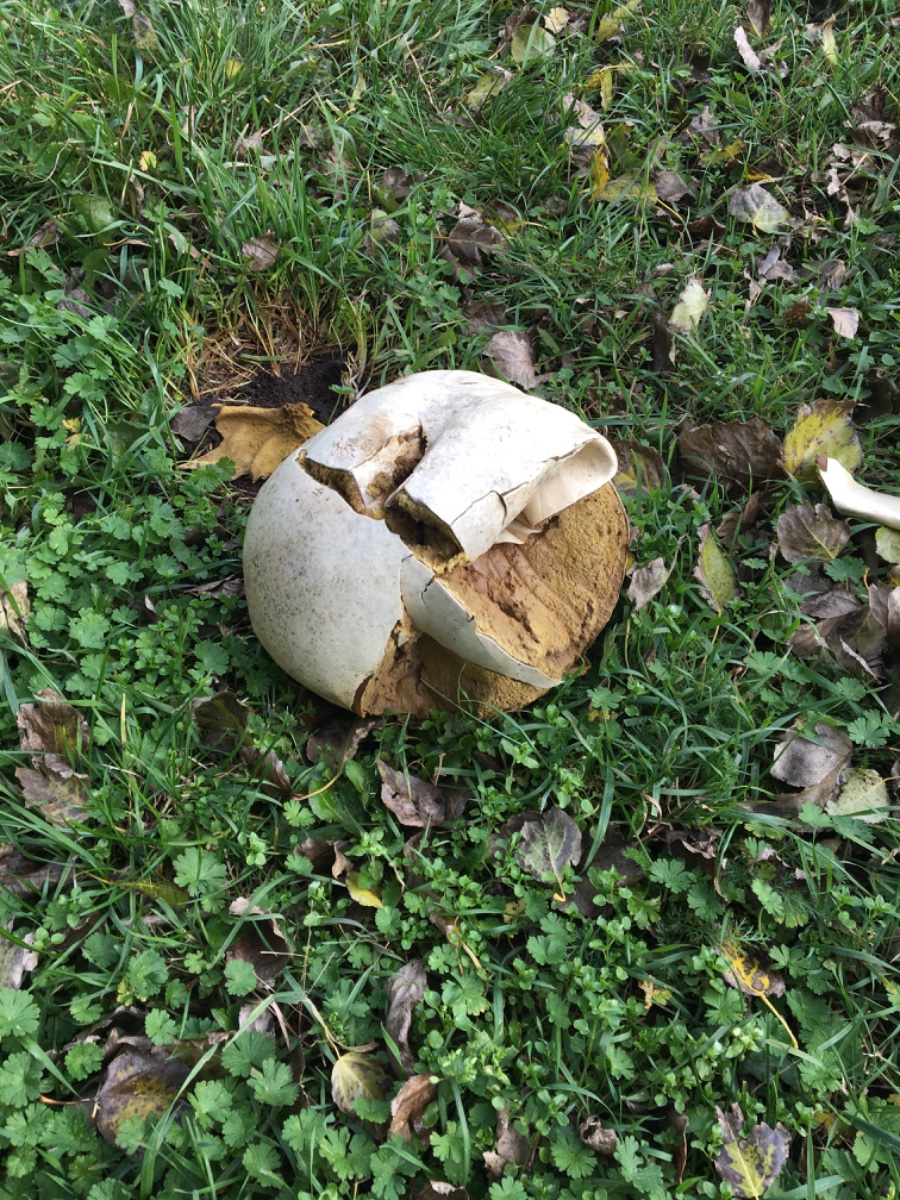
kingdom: Fungi
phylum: Basidiomycota
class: Agaricomycetes
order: Agaricales
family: Lycoperdaceae
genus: Calvatia
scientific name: Calvatia gigantea
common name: kæmpestøvbold
